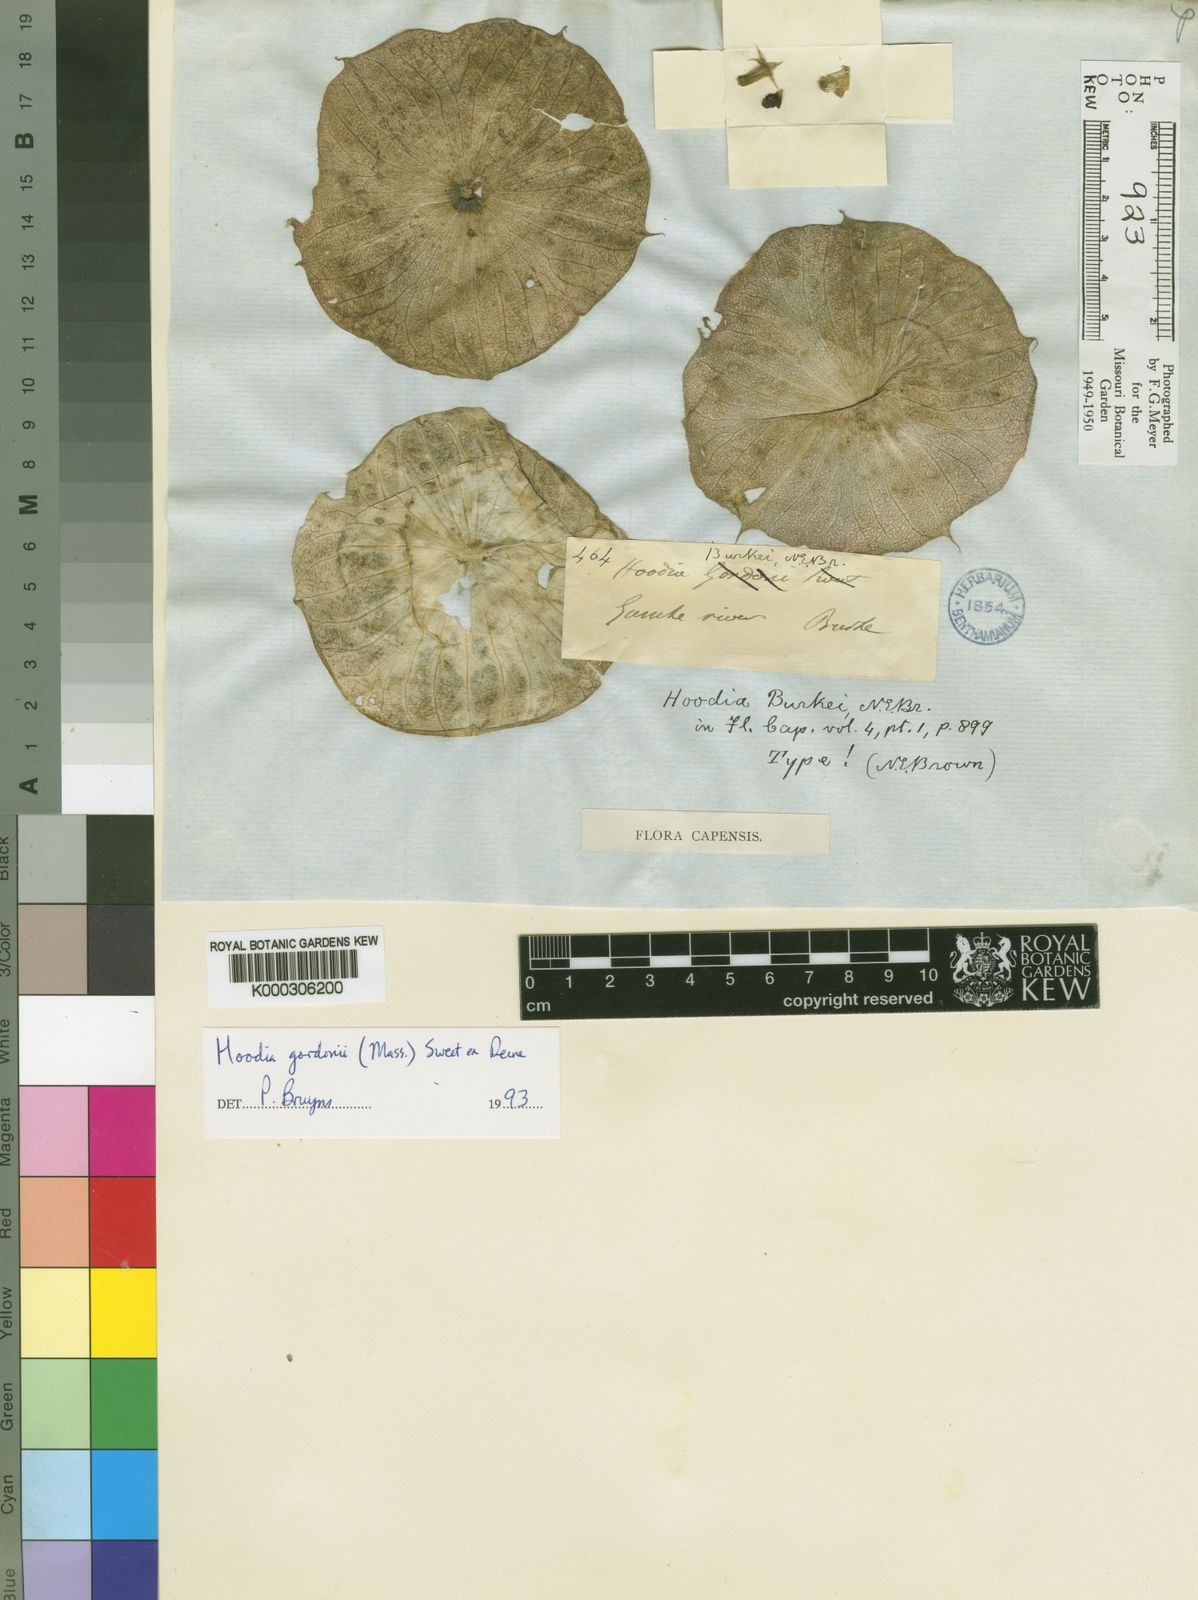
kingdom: Plantae
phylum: Tracheophyta
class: Magnoliopsida
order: Gentianales
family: Apocynaceae
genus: Ceropegia
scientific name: Ceropegia gordonii
